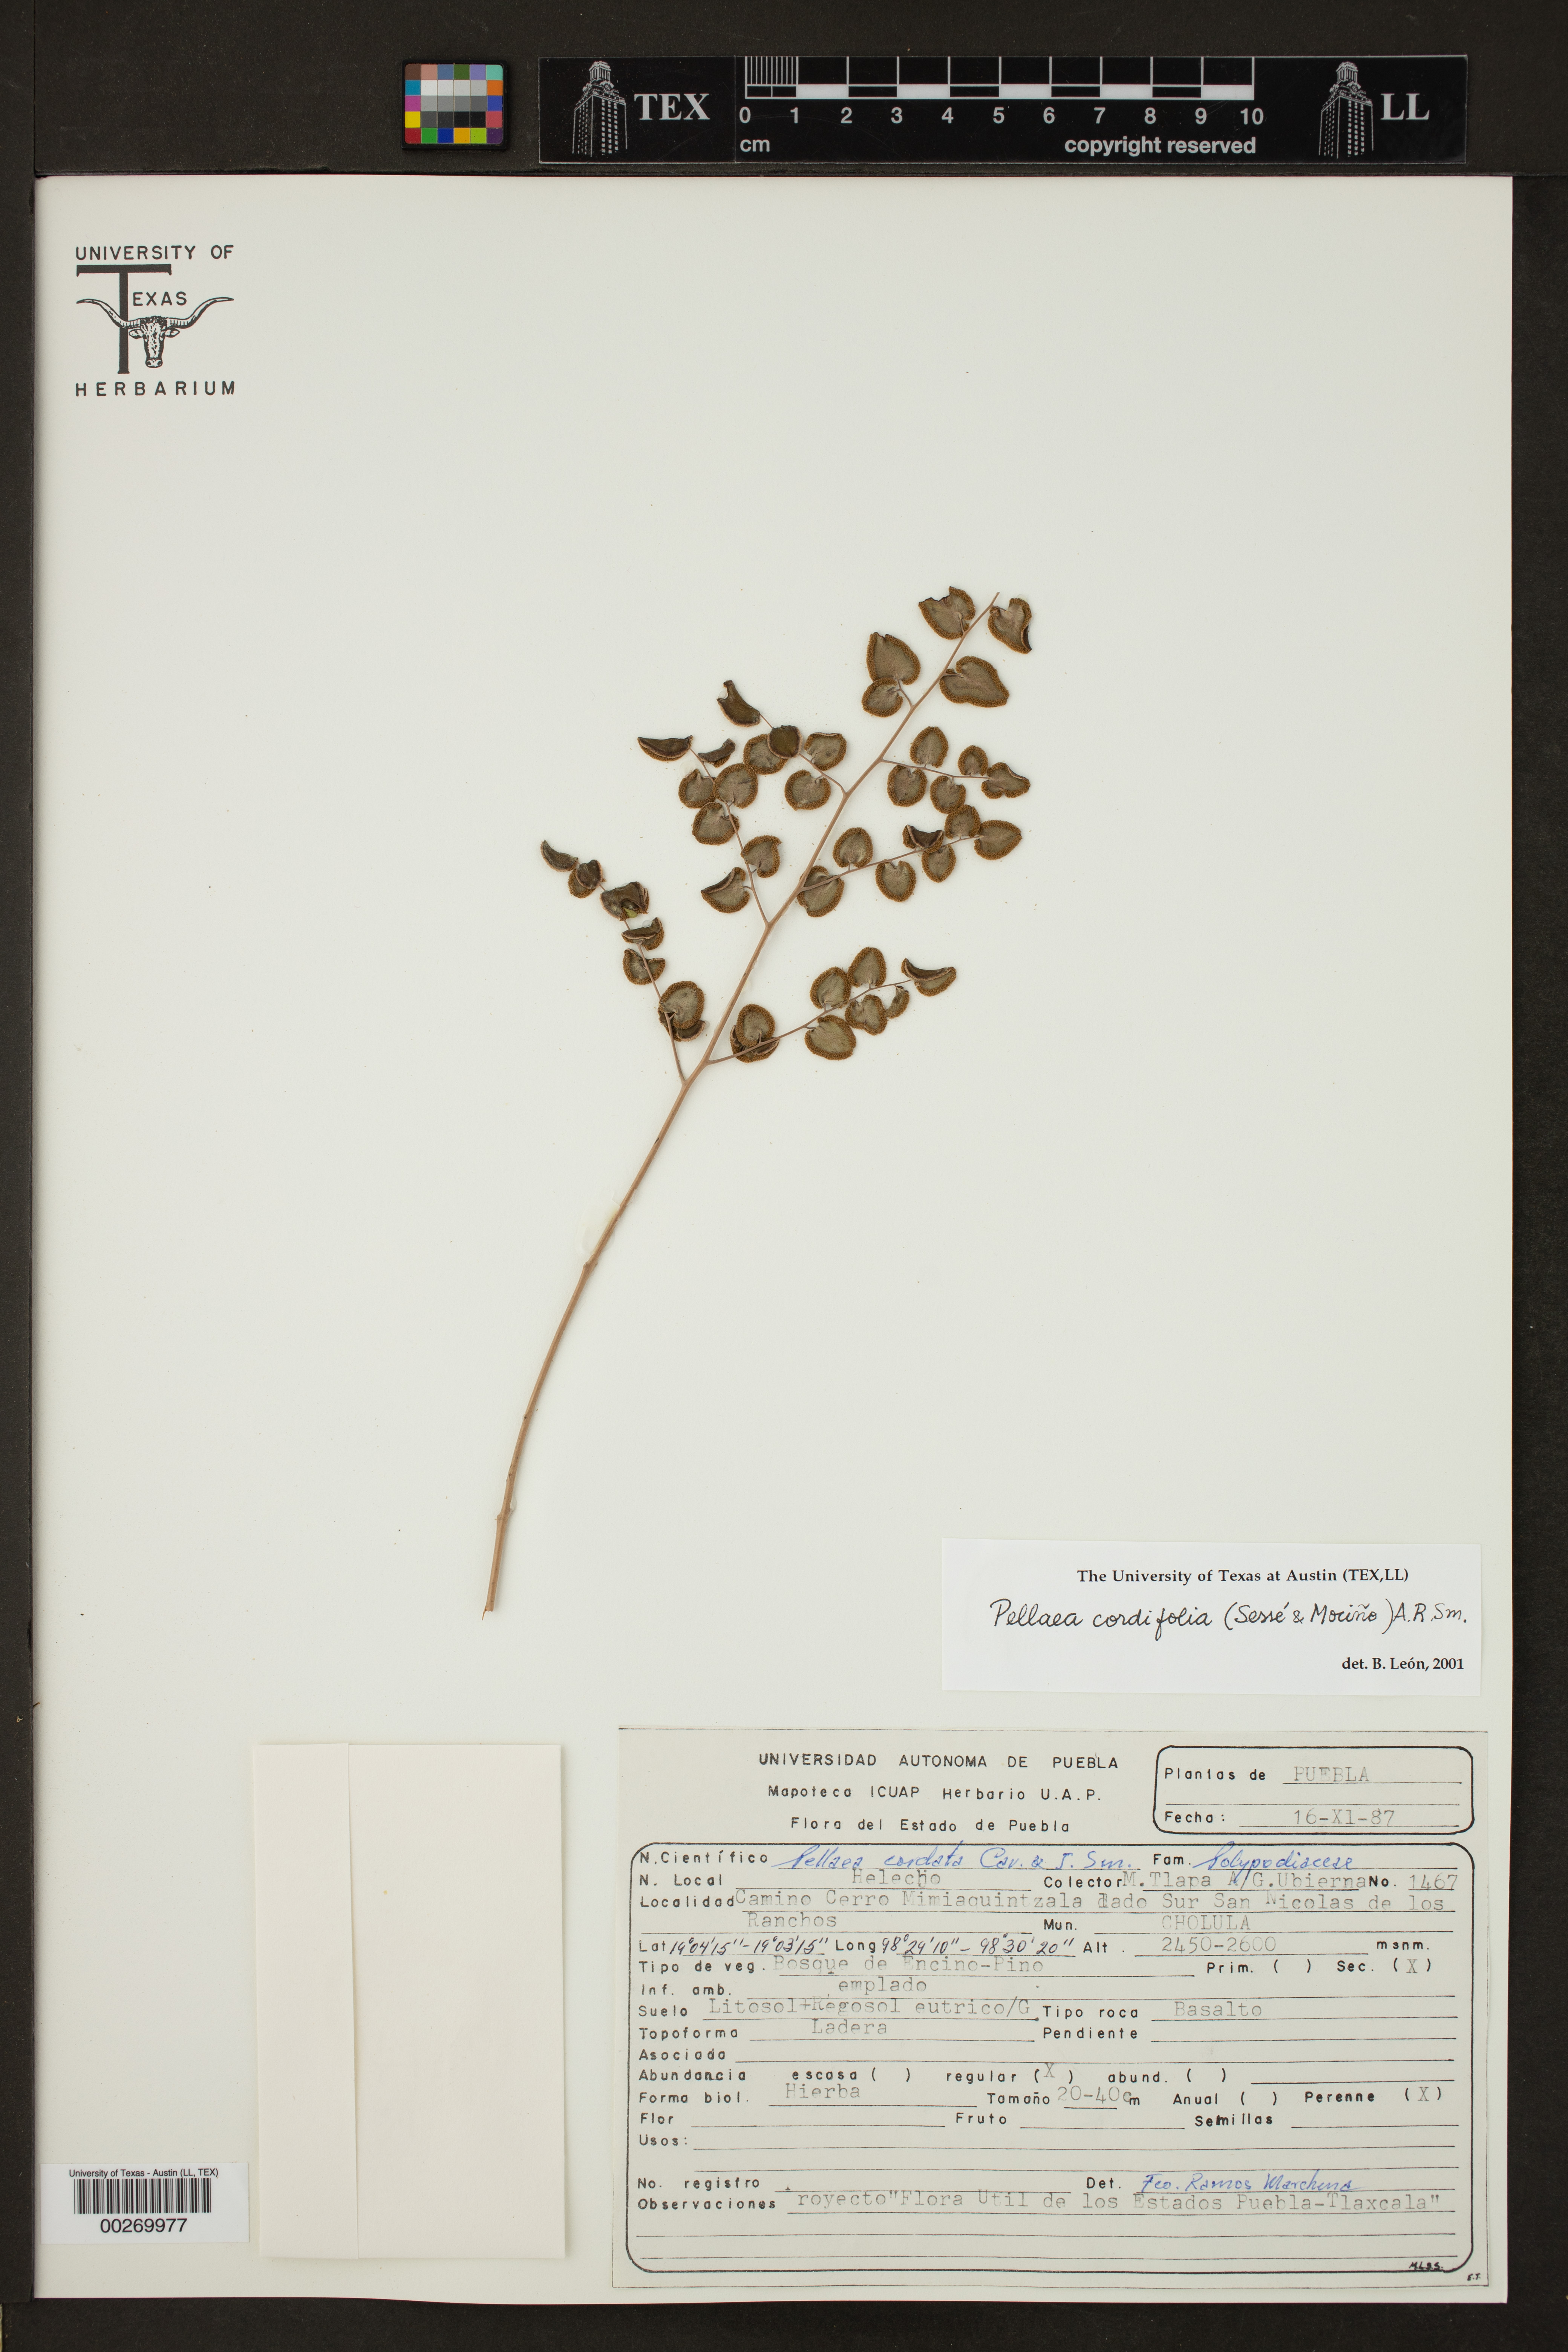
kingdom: Plantae
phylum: Tracheophyta
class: Polypodiopsida
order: Polypodiales
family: Pteridaceae
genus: Pellaea
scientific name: Pellaea cordifolia
